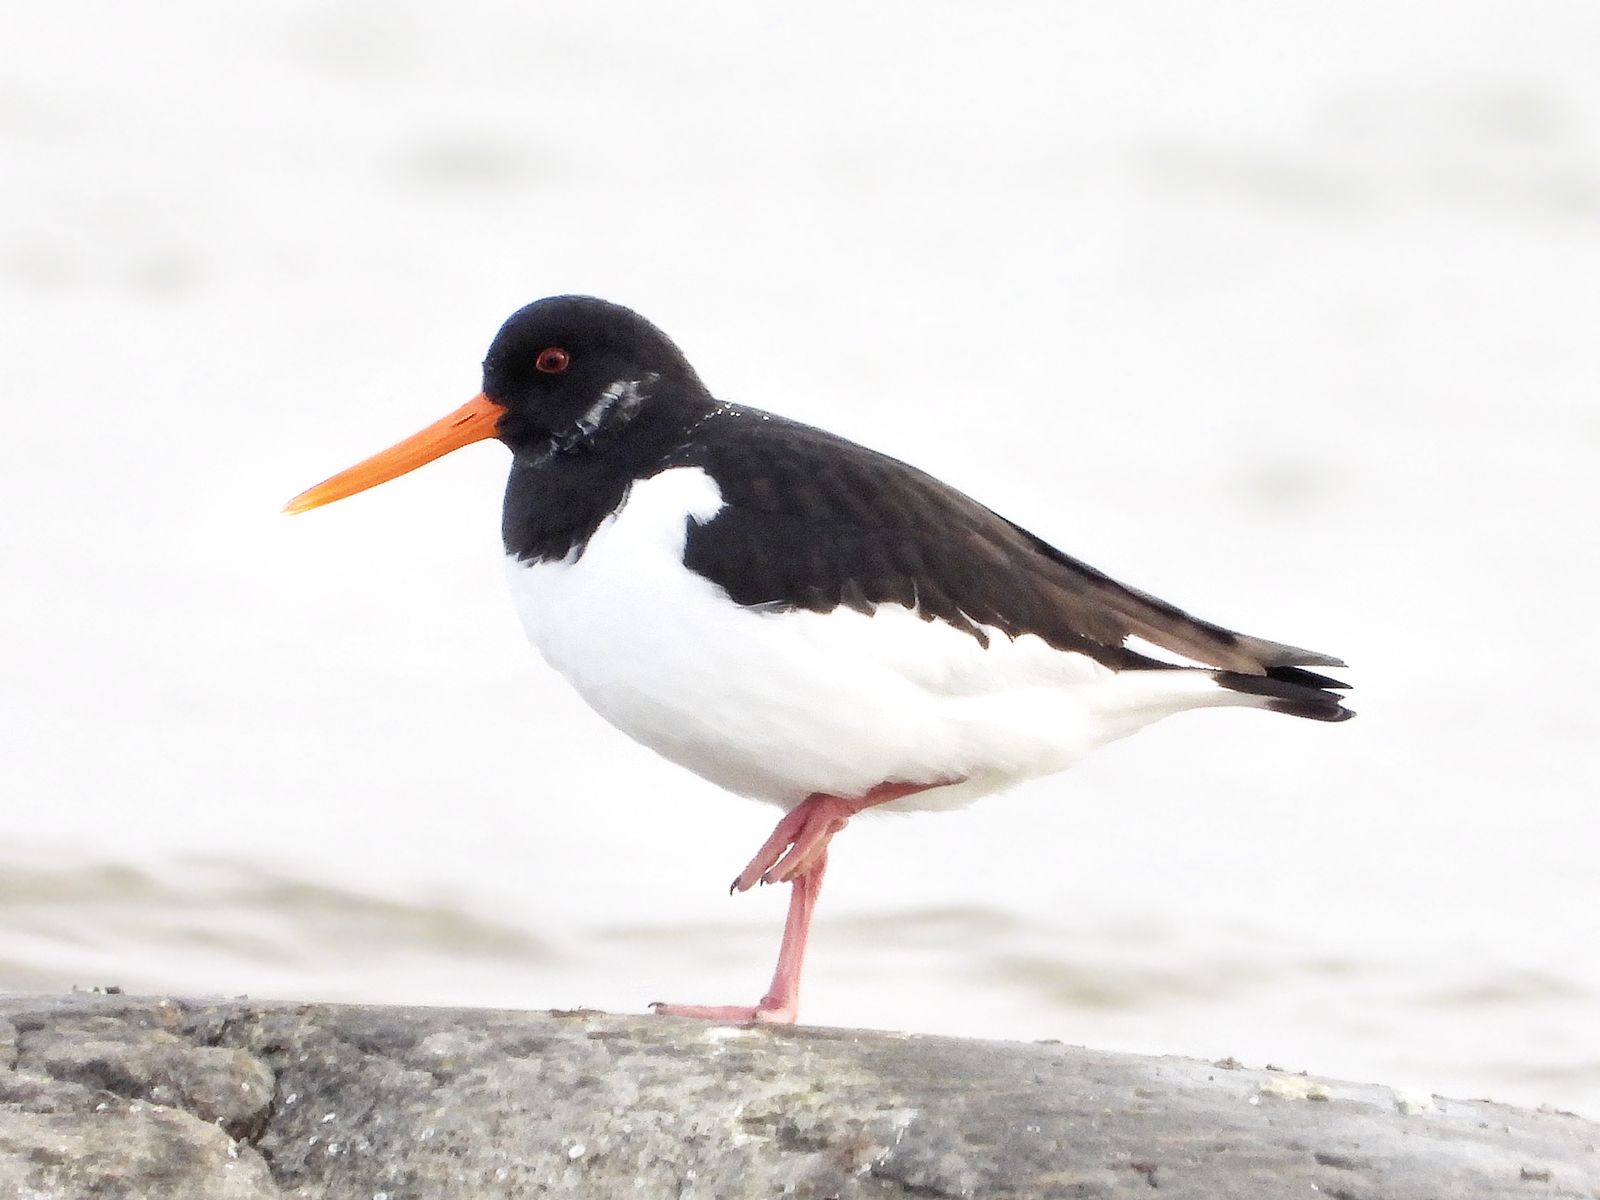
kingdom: Animalia
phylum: Chordata
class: Aves
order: Charadriiformes
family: Haematopodidae
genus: Haematopus
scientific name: Haematopus ostralegus
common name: Eurasian oystercatcher
